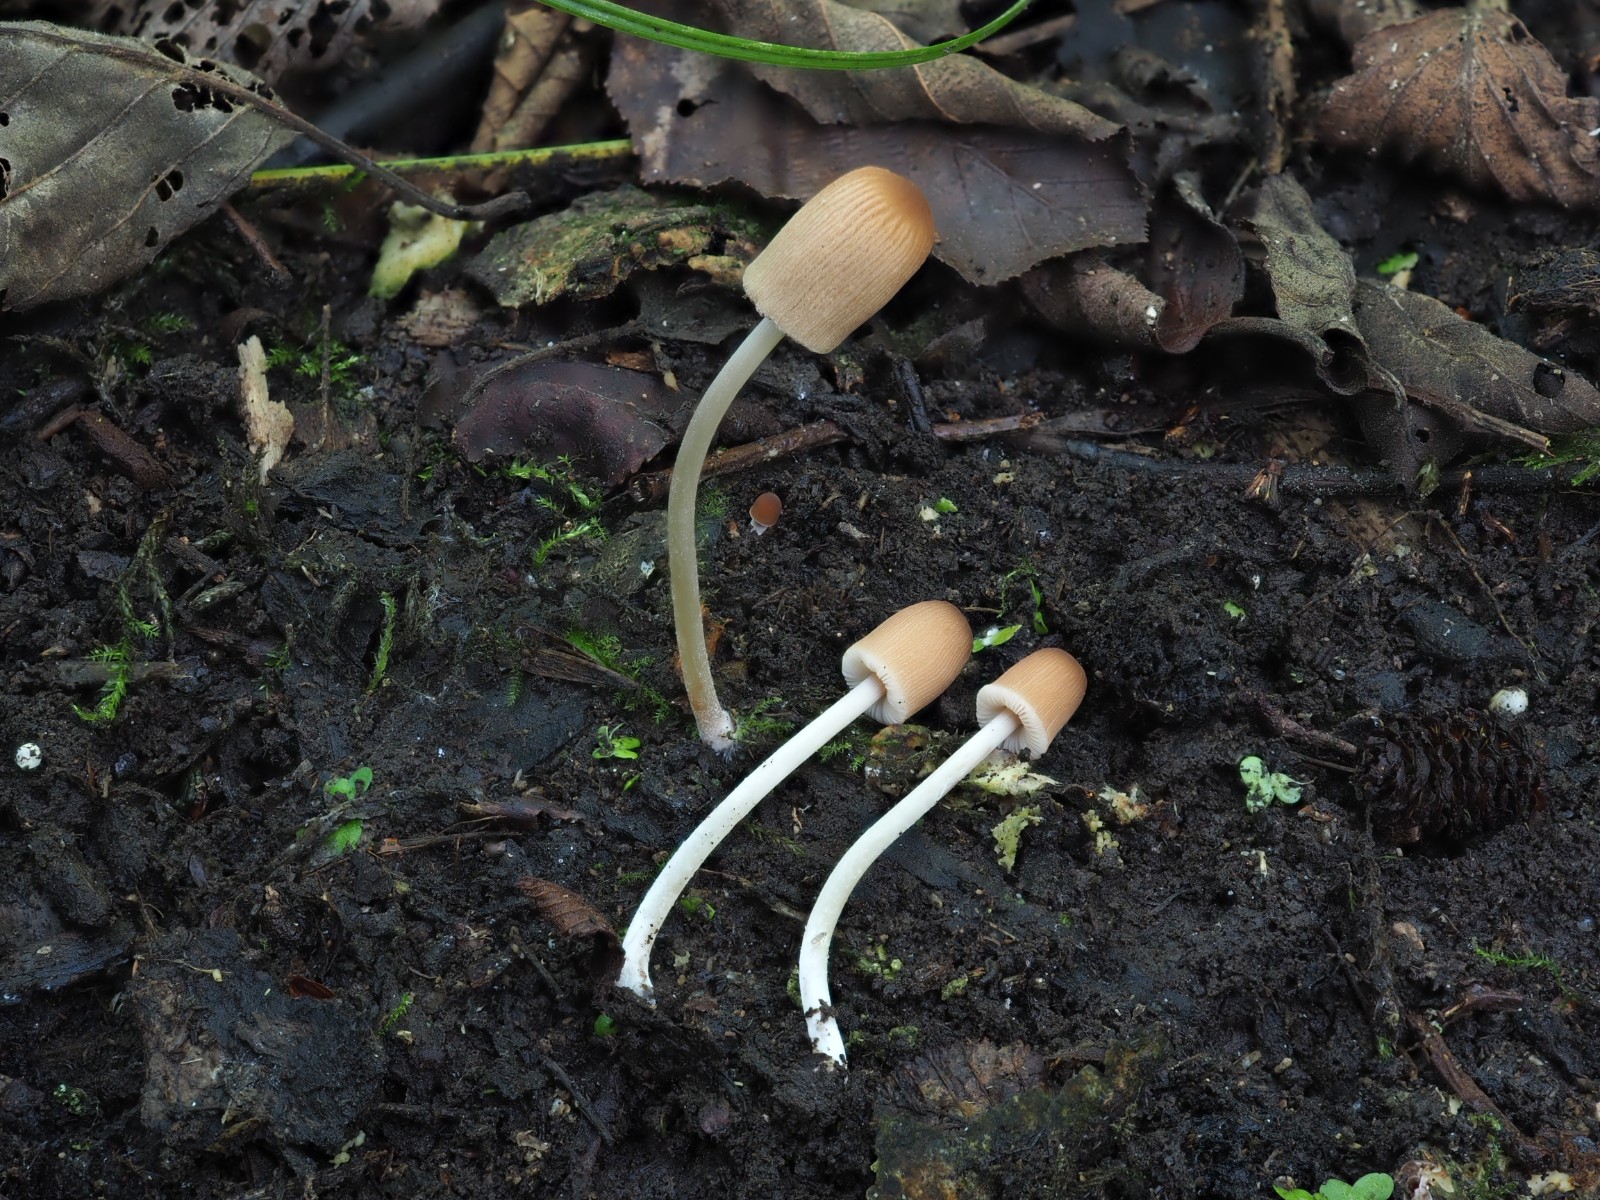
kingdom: Fungi
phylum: Basidiomycota
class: Agaricomycetes
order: Agaricales
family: Psathyrellaceae
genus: Parasola
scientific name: Parasola lactea
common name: glat hjulhat
